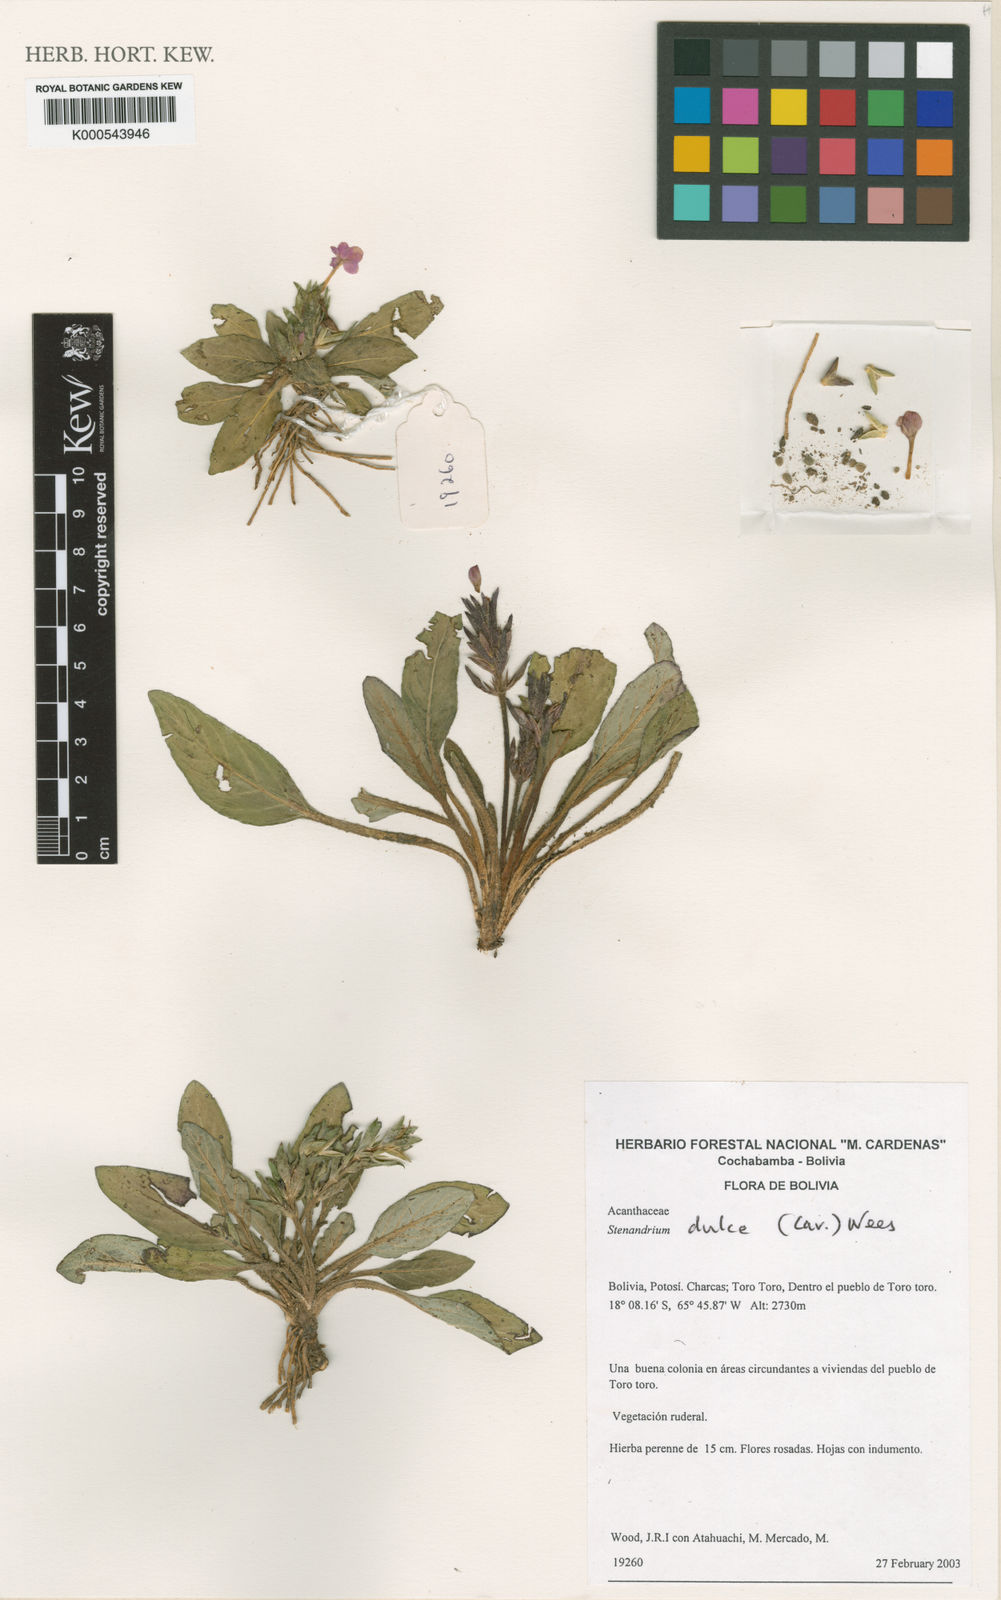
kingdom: Plantae
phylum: Tracheophyta
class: Magnoliopsida
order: Lamiales
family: Acanthaceae
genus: Stenandrium
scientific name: Stenandrium dulce
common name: Pinklet
